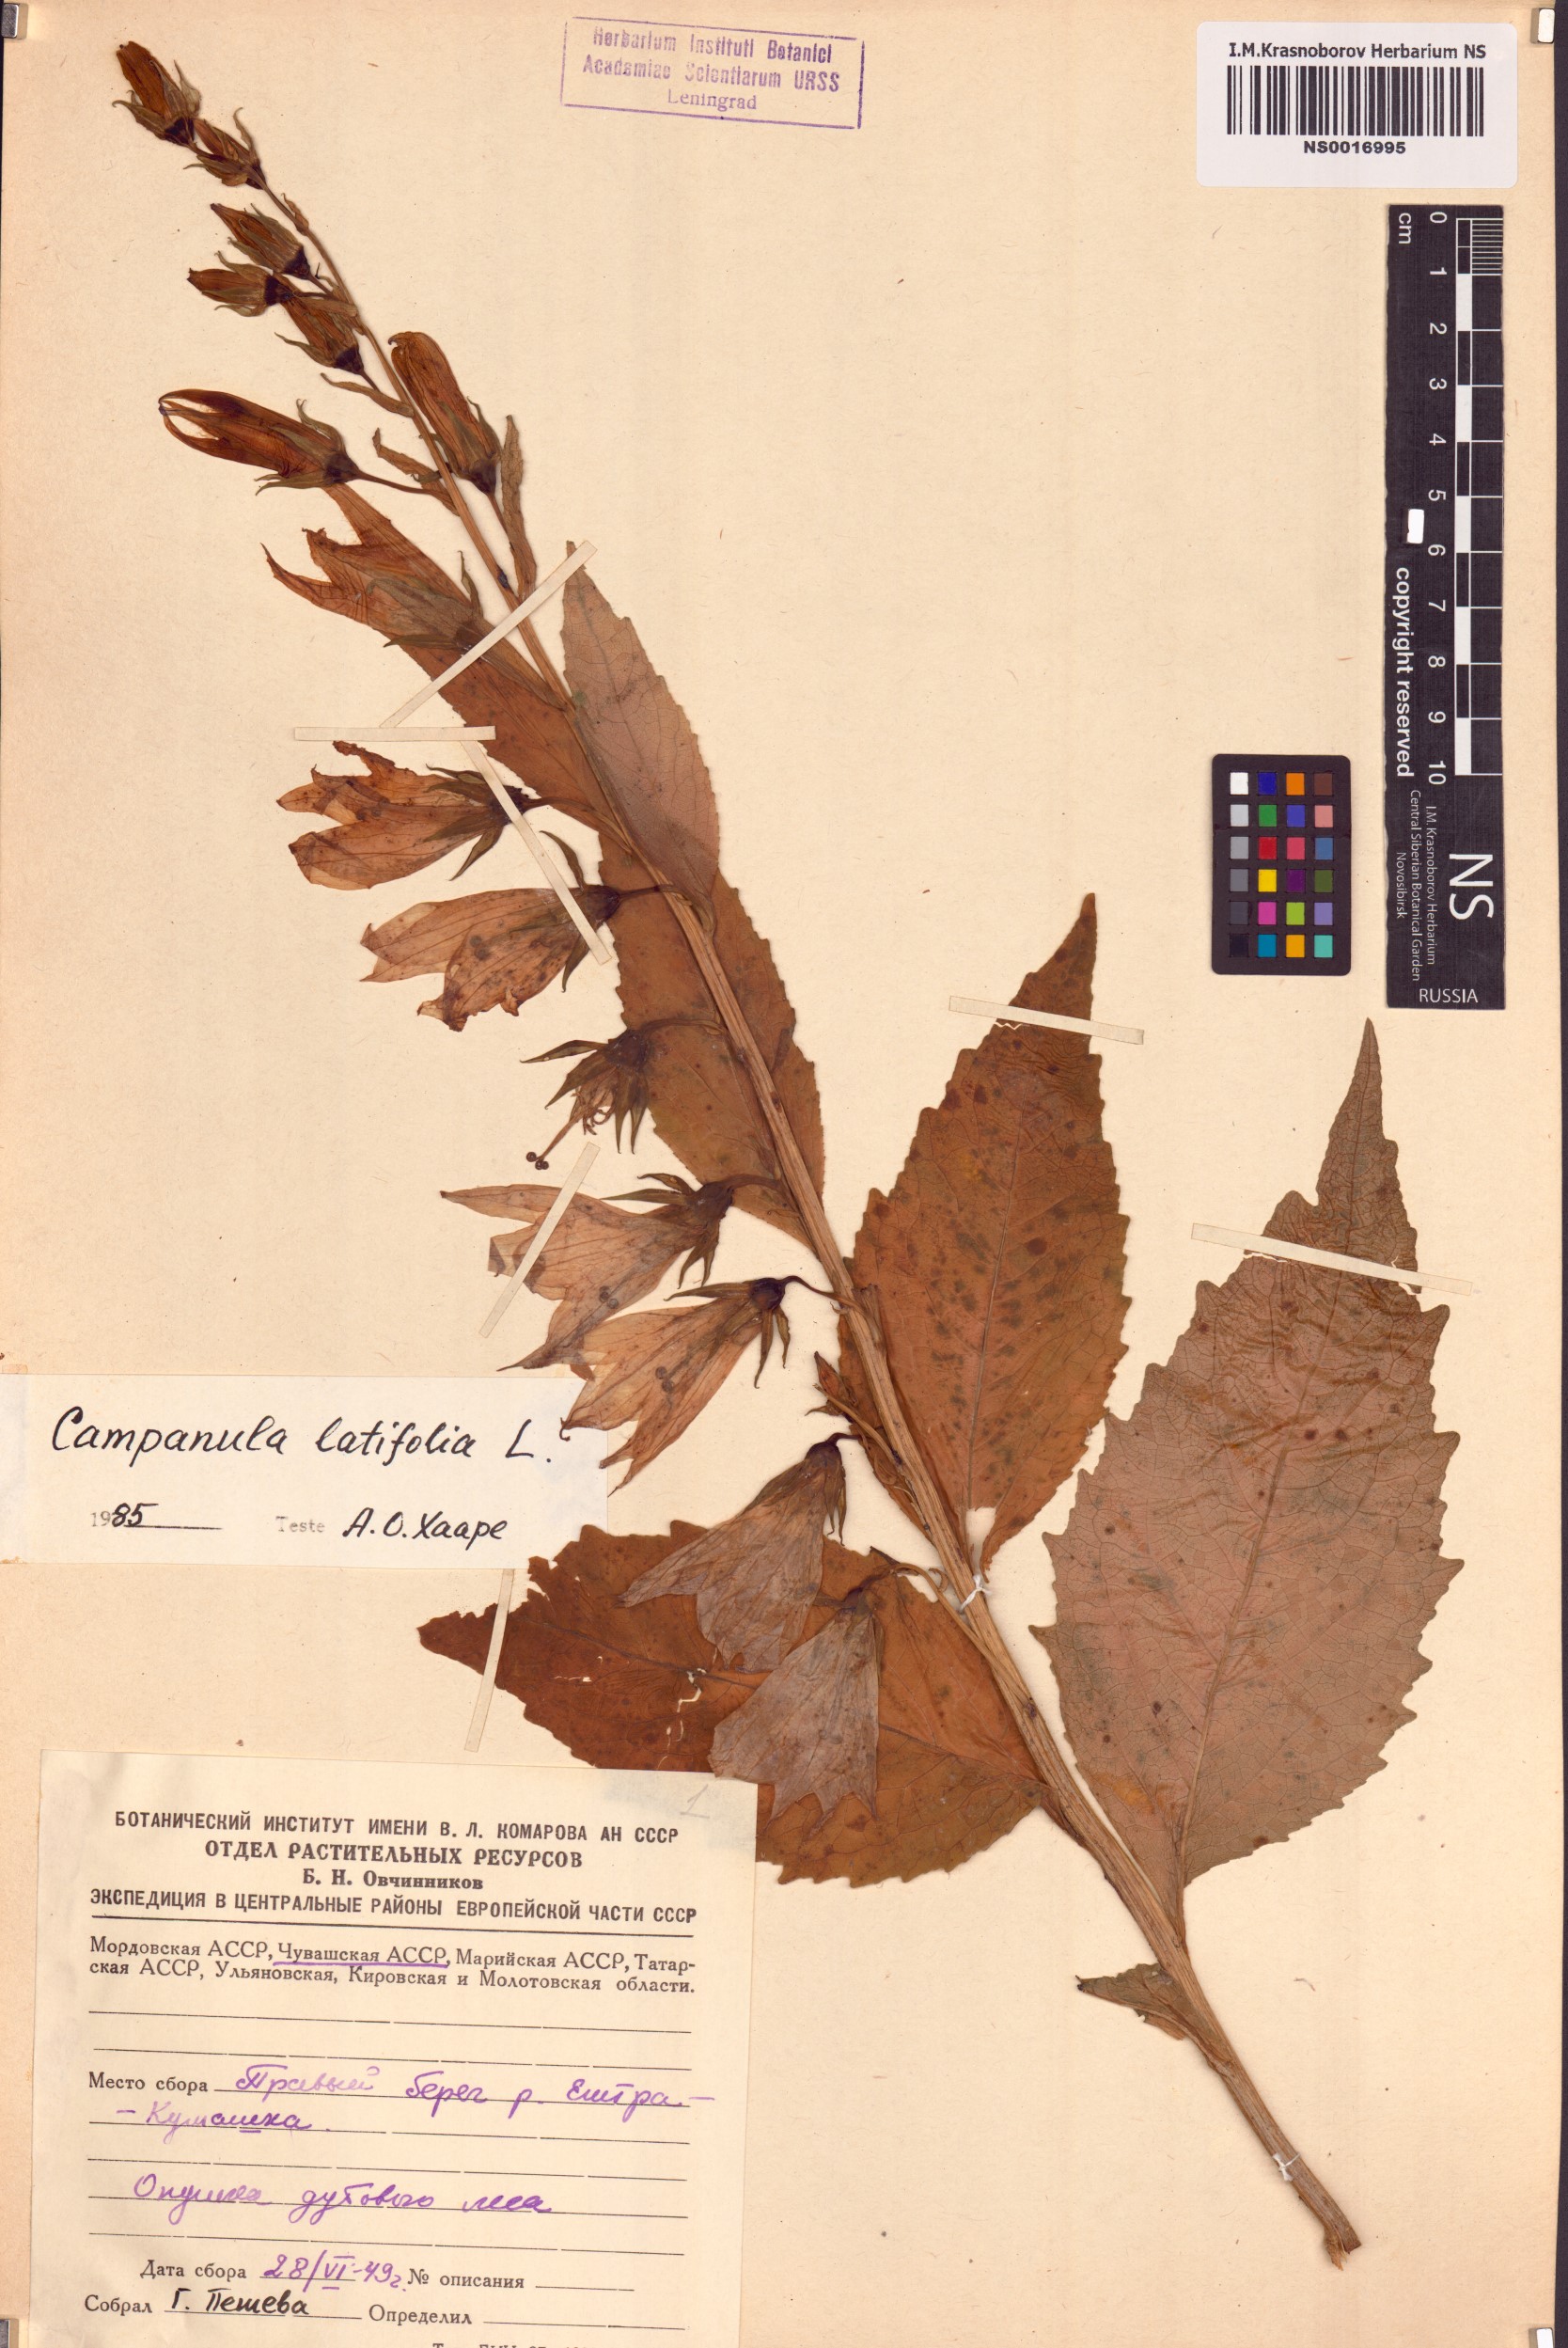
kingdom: Plantae
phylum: Tracheophyta
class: Magnoliopsida
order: Asterales
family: Campanulaceae
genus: Campanula
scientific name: Campanula latifolia
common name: Giant bellflower
